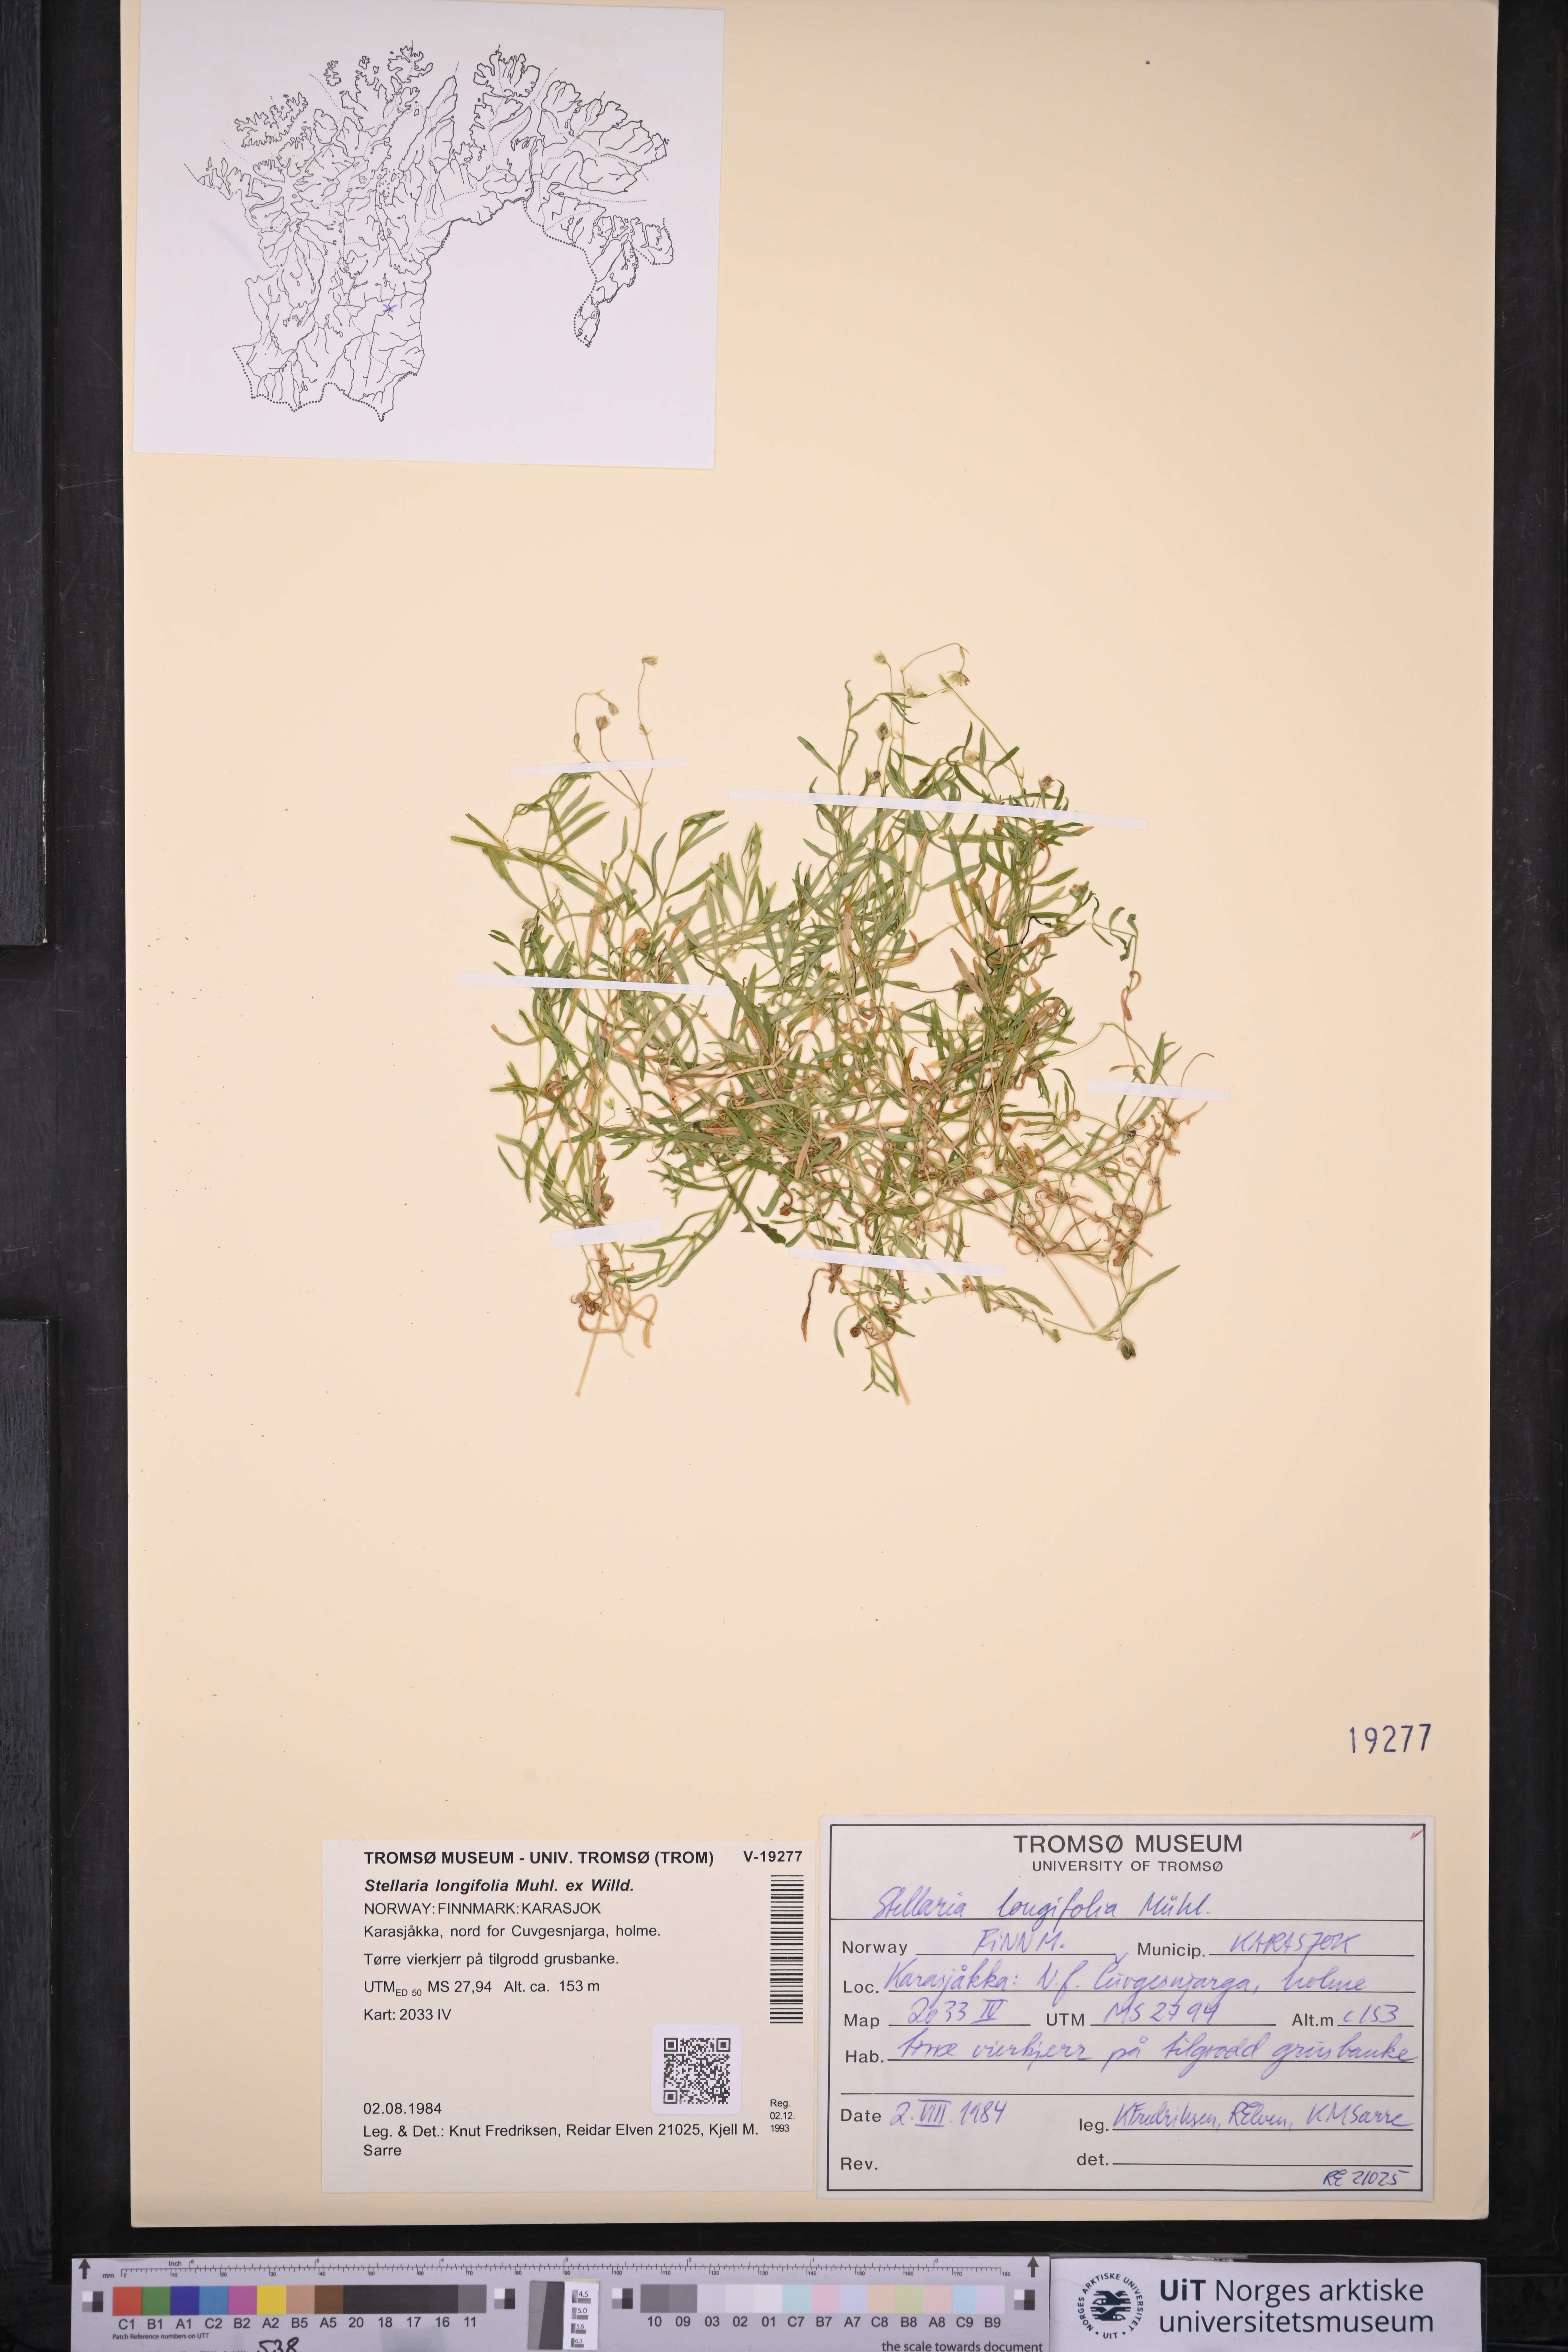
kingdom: Plantae
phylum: Tracheophyta
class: Magnoliopsida
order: Caryophyllales
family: Caryophyllaceae
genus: Stellaria
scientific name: Stellaria longifolia
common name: Long-leaved chickweed
